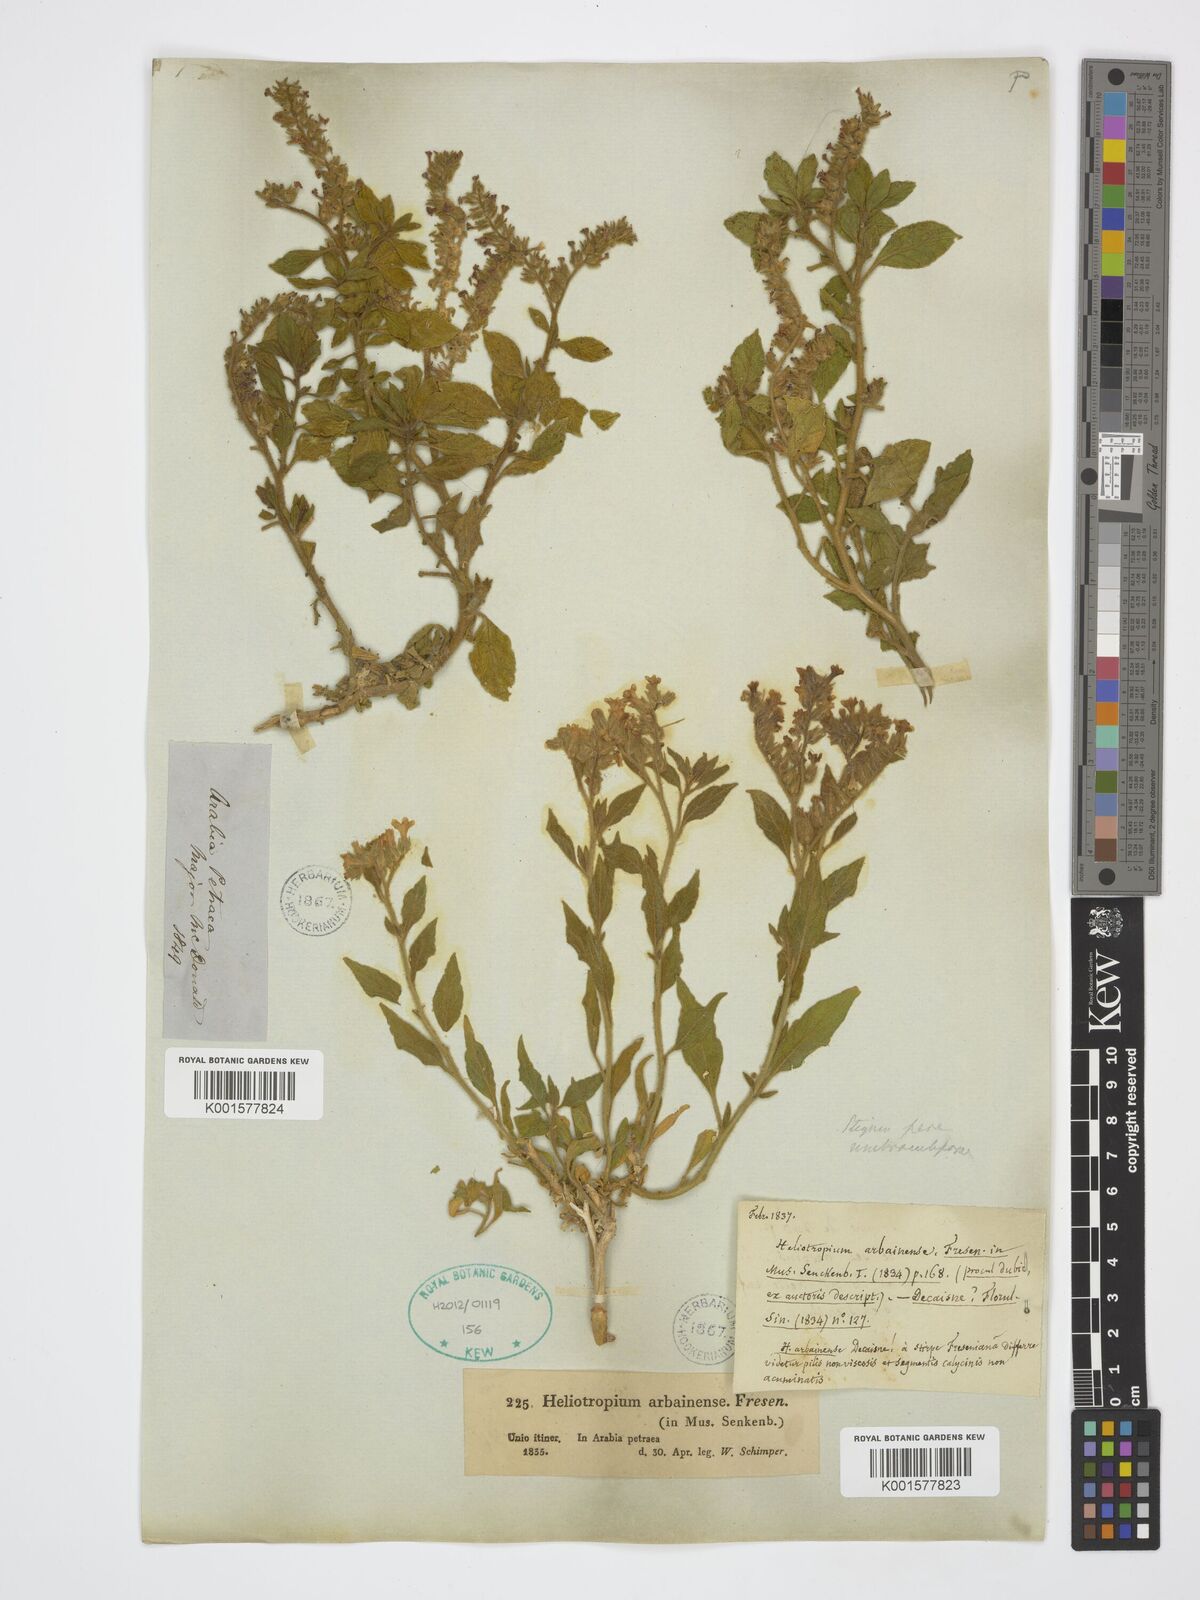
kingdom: Plantae
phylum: Tracheophyta
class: Magnoliopsida
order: Boraginales
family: Heliotropiaceae
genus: Heliotropium
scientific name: Heliotropium arbainense
